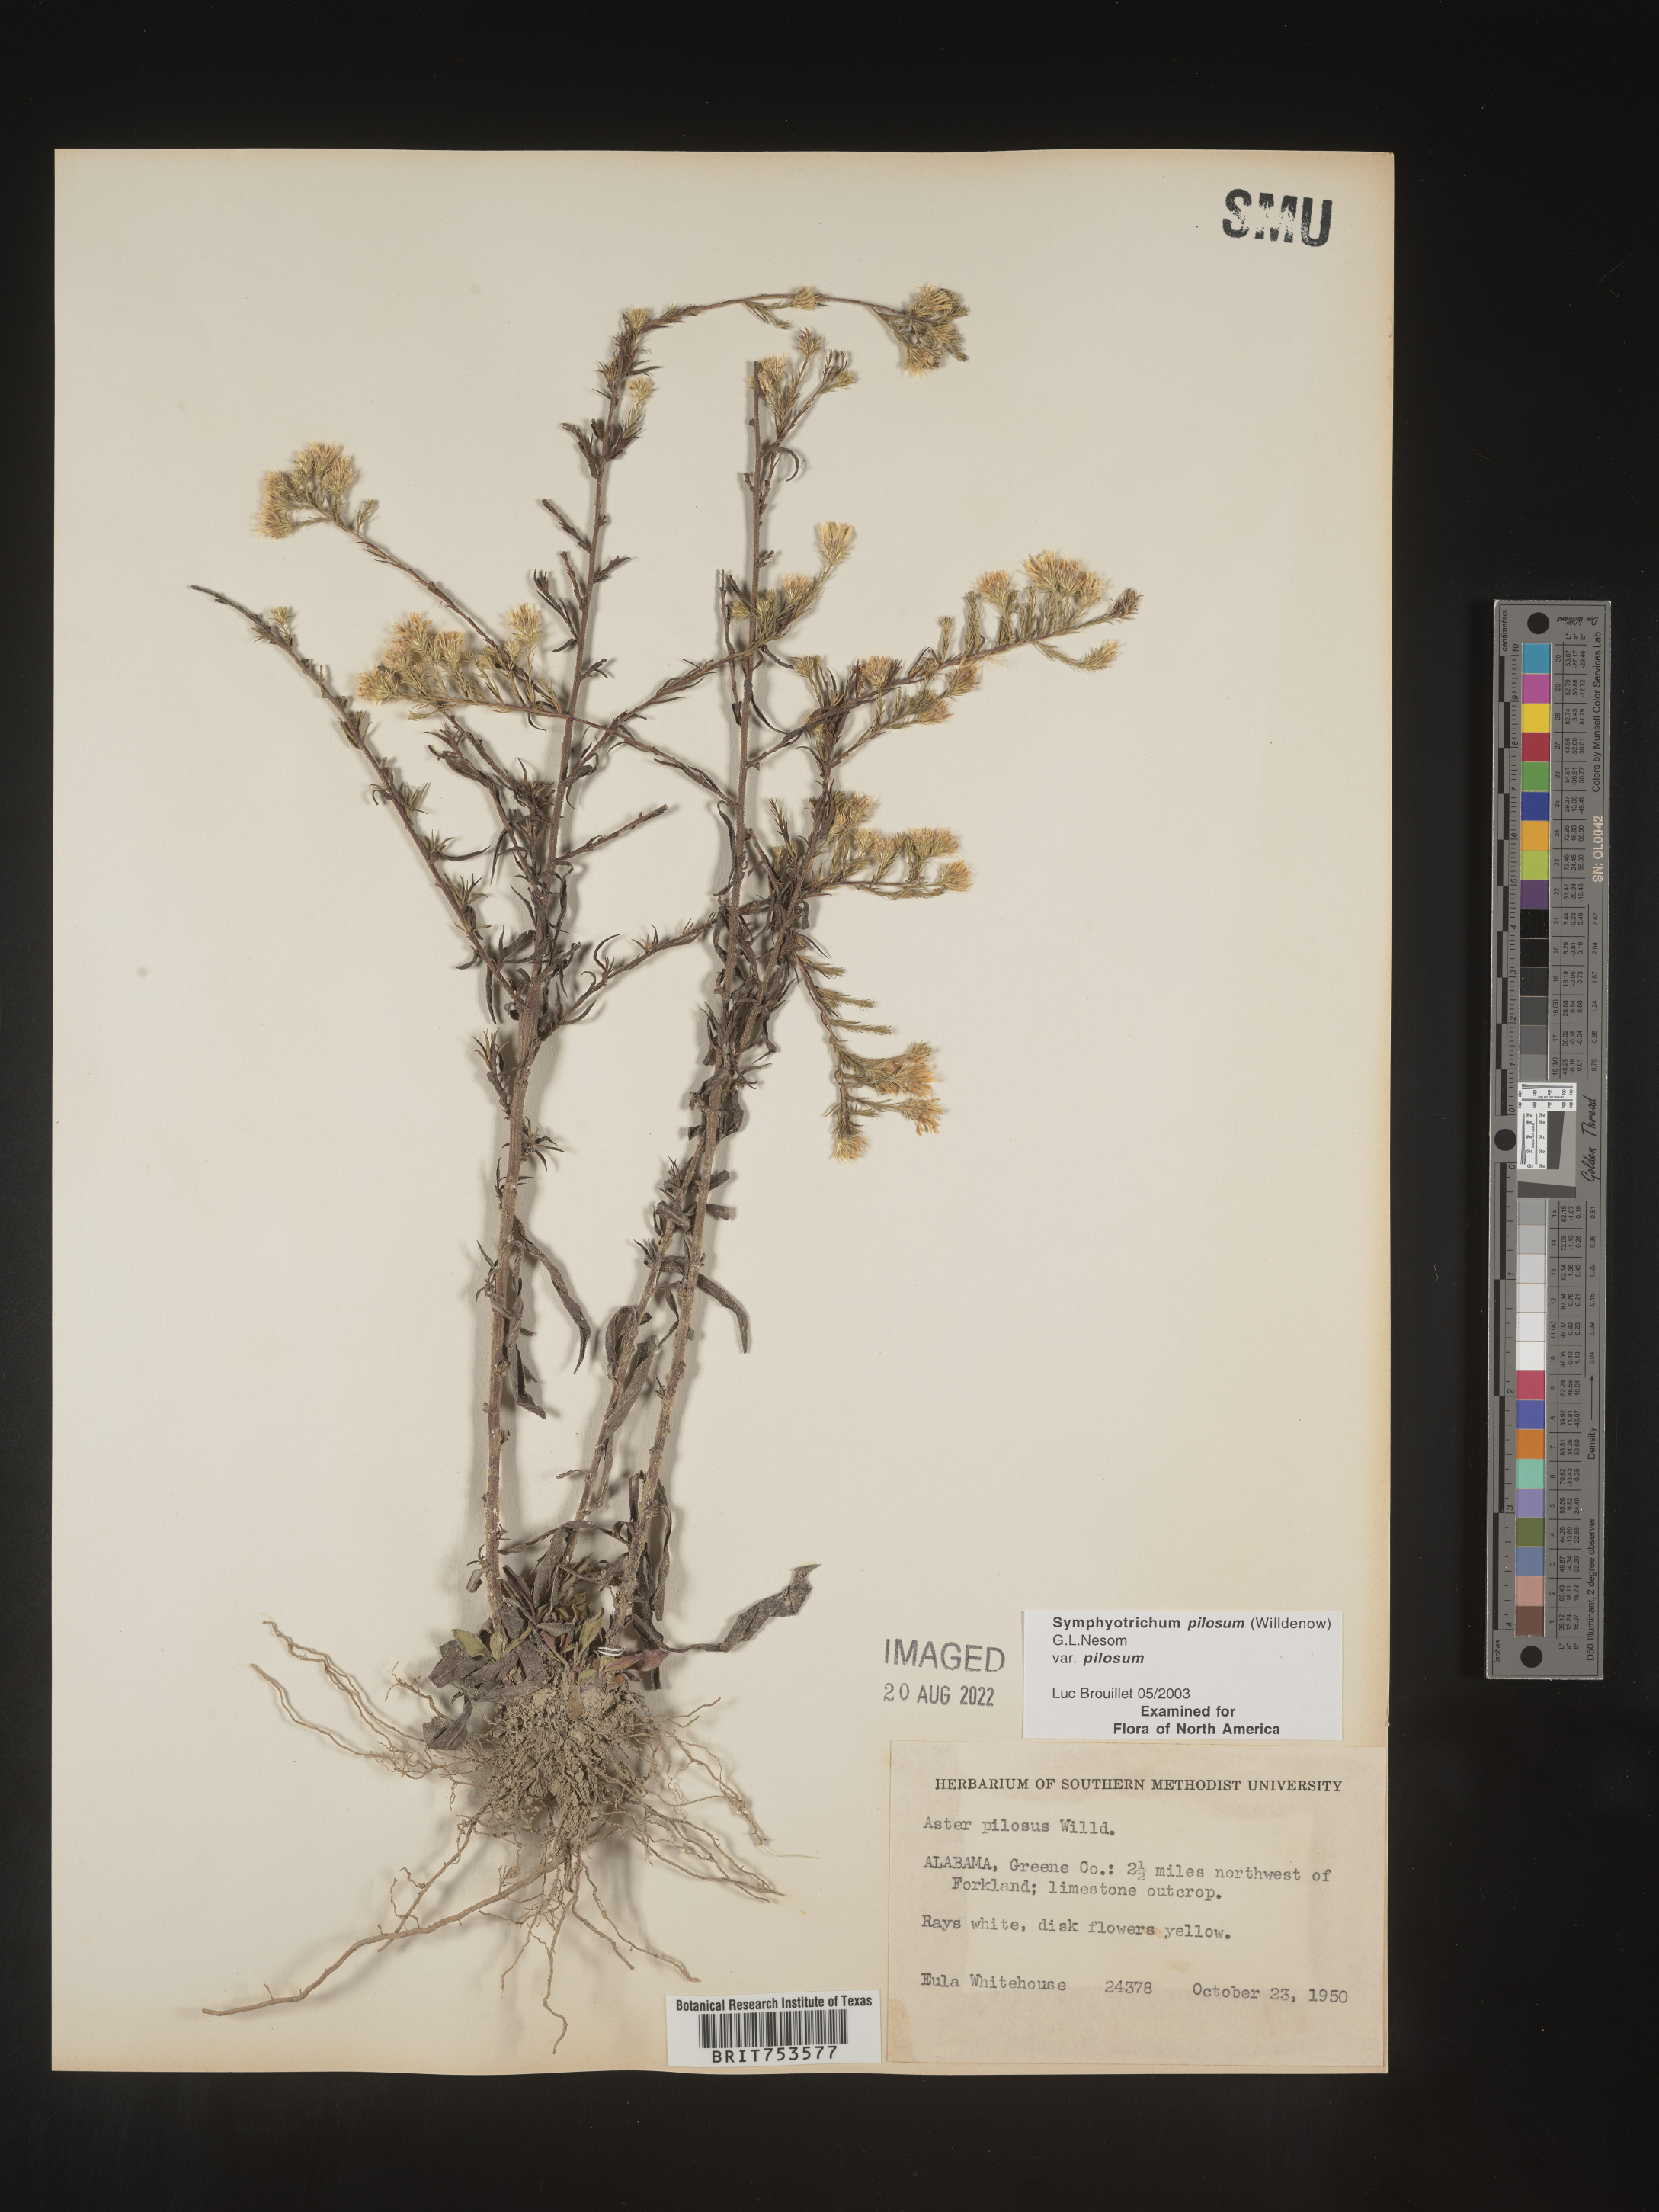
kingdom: Plantae
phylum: Tracheophyta
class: Magnoliopsida
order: Asterales
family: Asteraceae
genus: Symphyotrichum
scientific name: Symphyotrichum pilosum
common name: Awl aster
